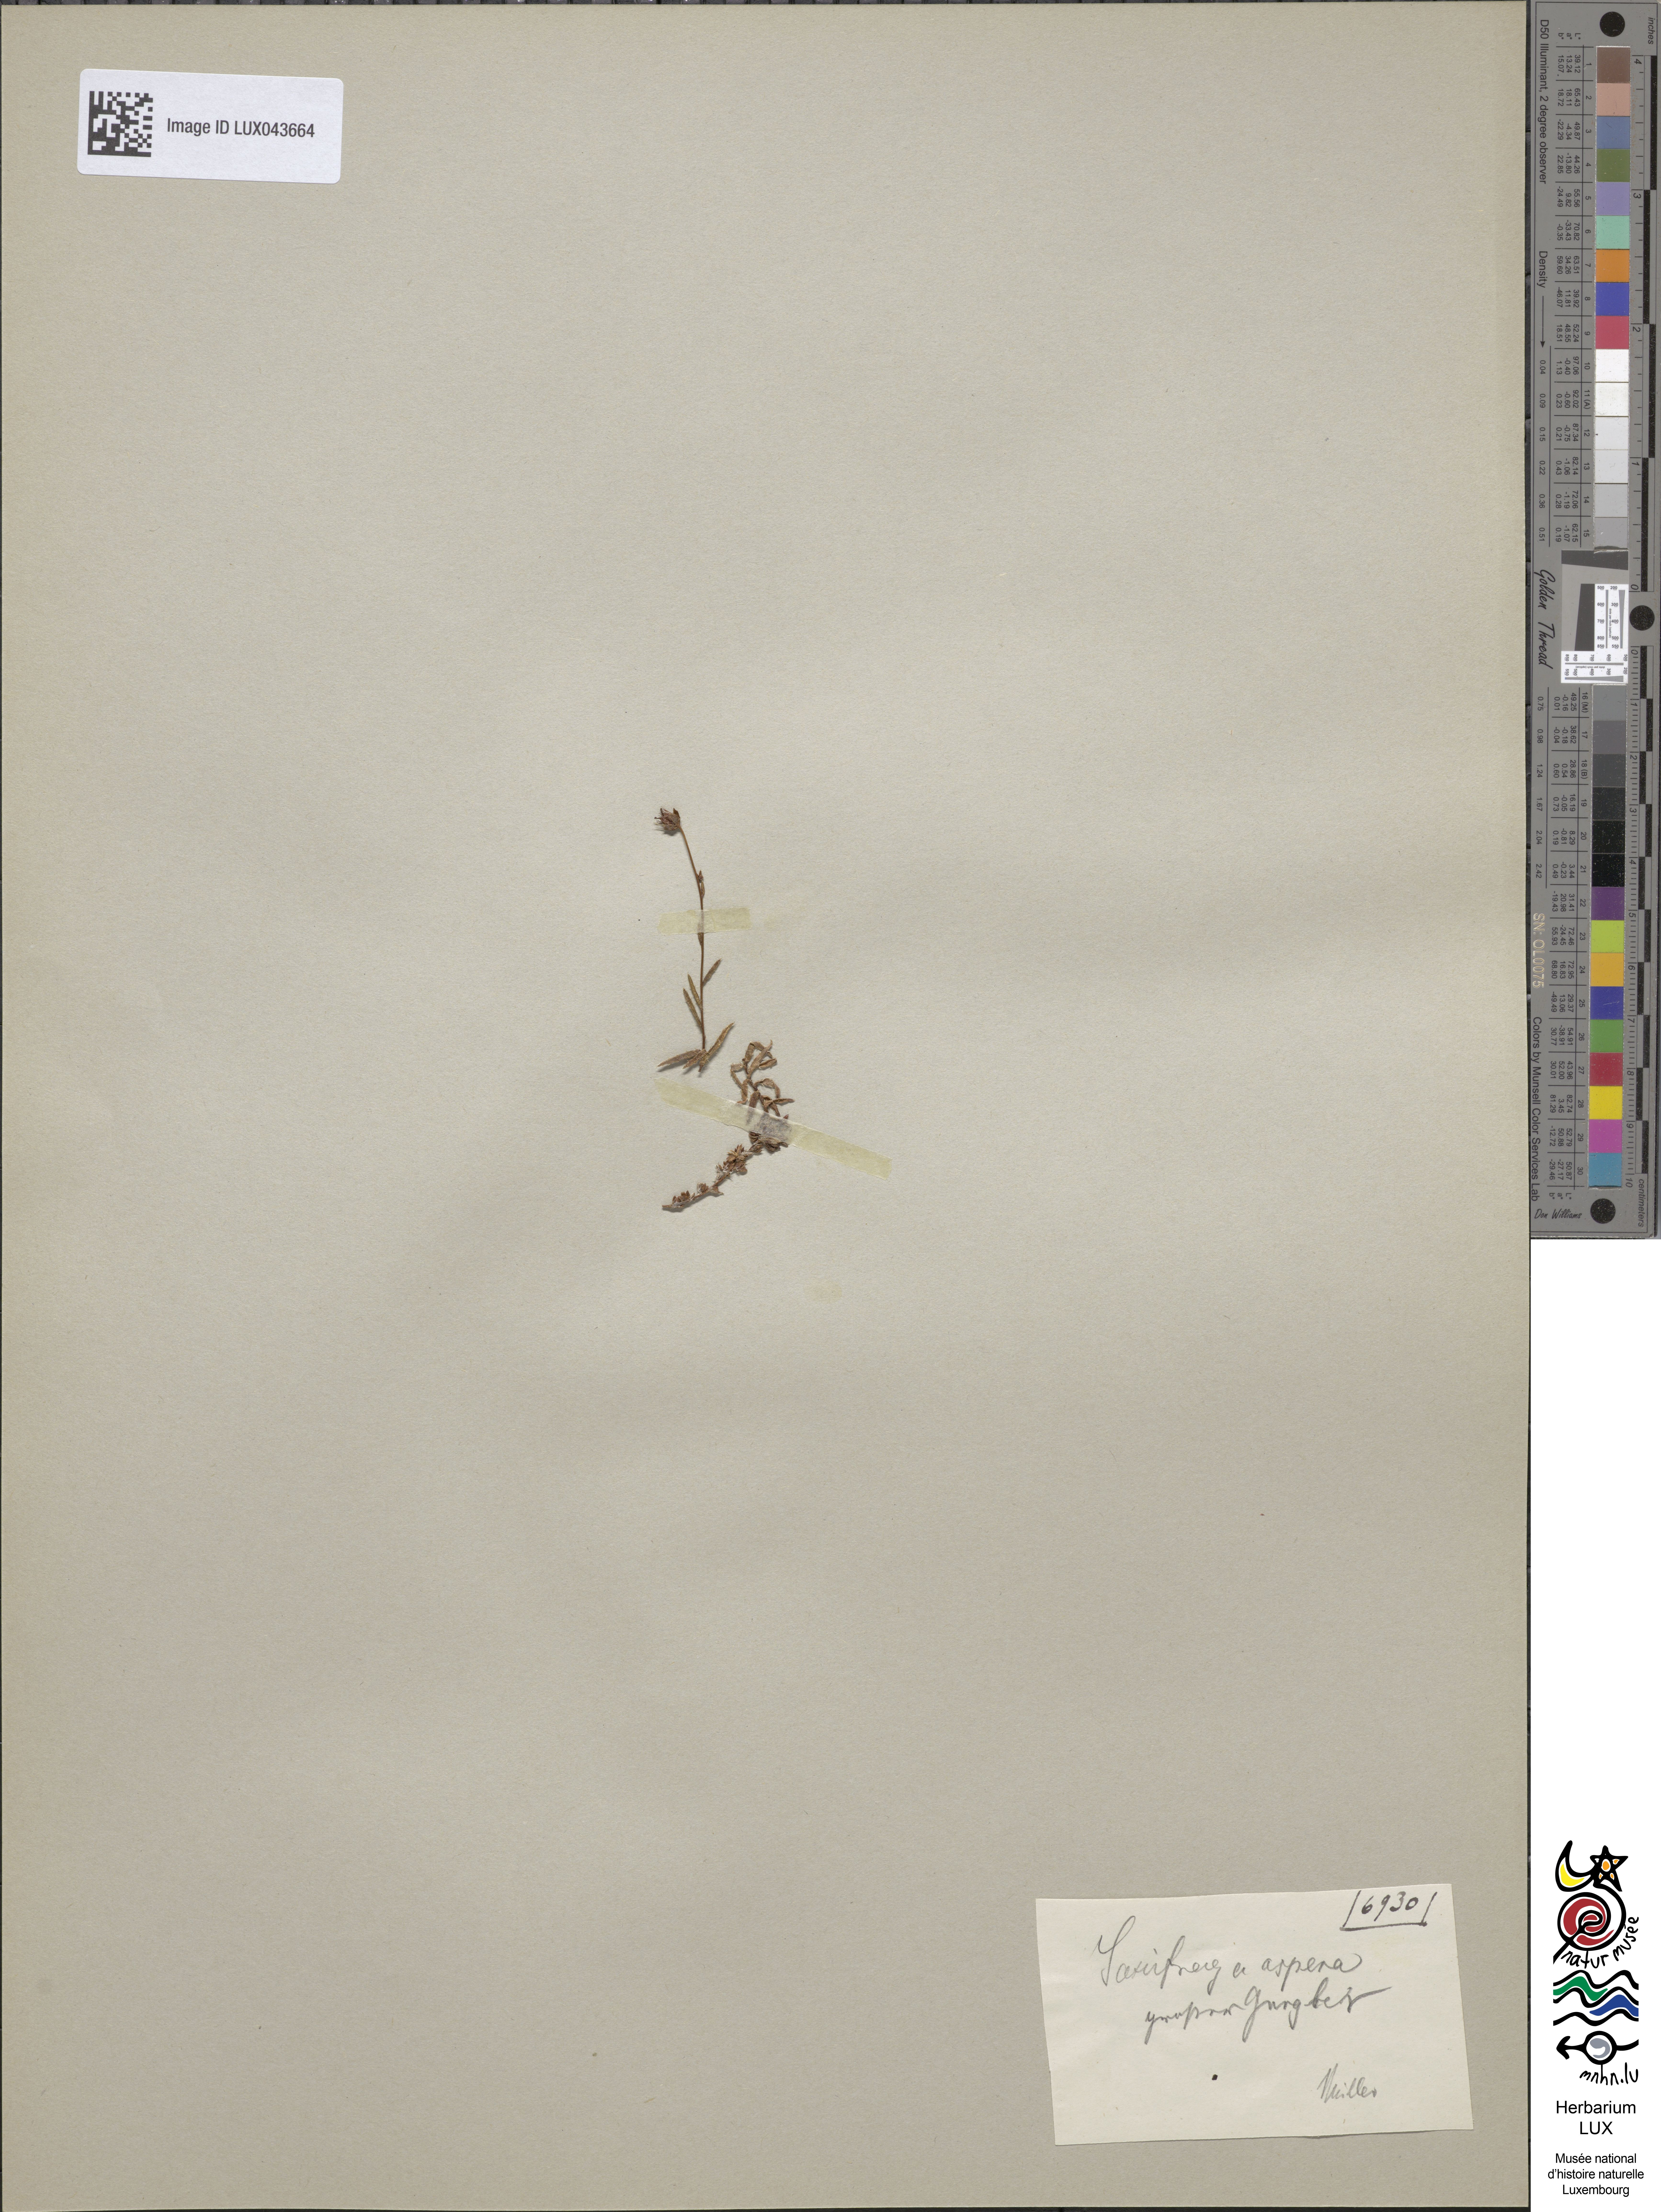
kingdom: Plantae
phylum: Tracheophyta
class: Magnoliopsida
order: Saxifragales
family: Saxifragaceae
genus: Saxifraga
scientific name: Saxifraga aspera
